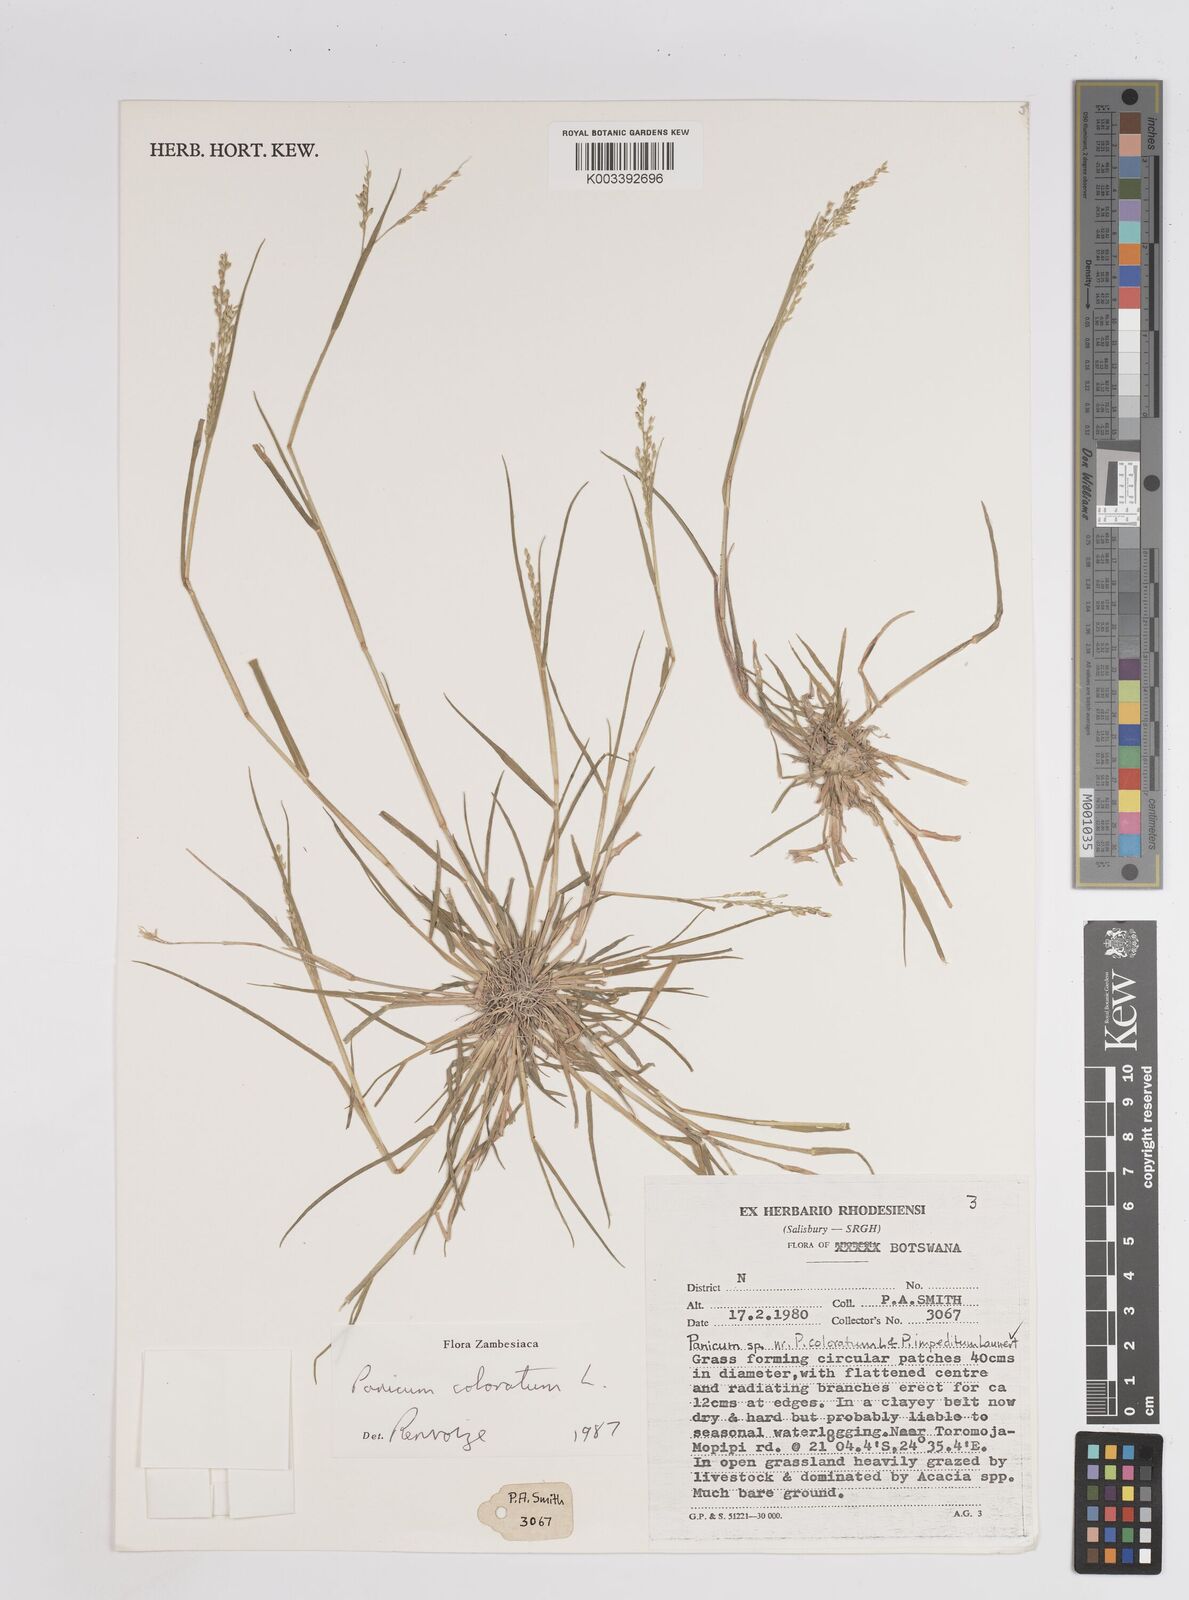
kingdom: Plantae
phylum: Tracheophyta
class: Liliopsida
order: Poales
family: Poaceae
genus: Panicum
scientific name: Panicum coloratum
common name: Kleingrass
